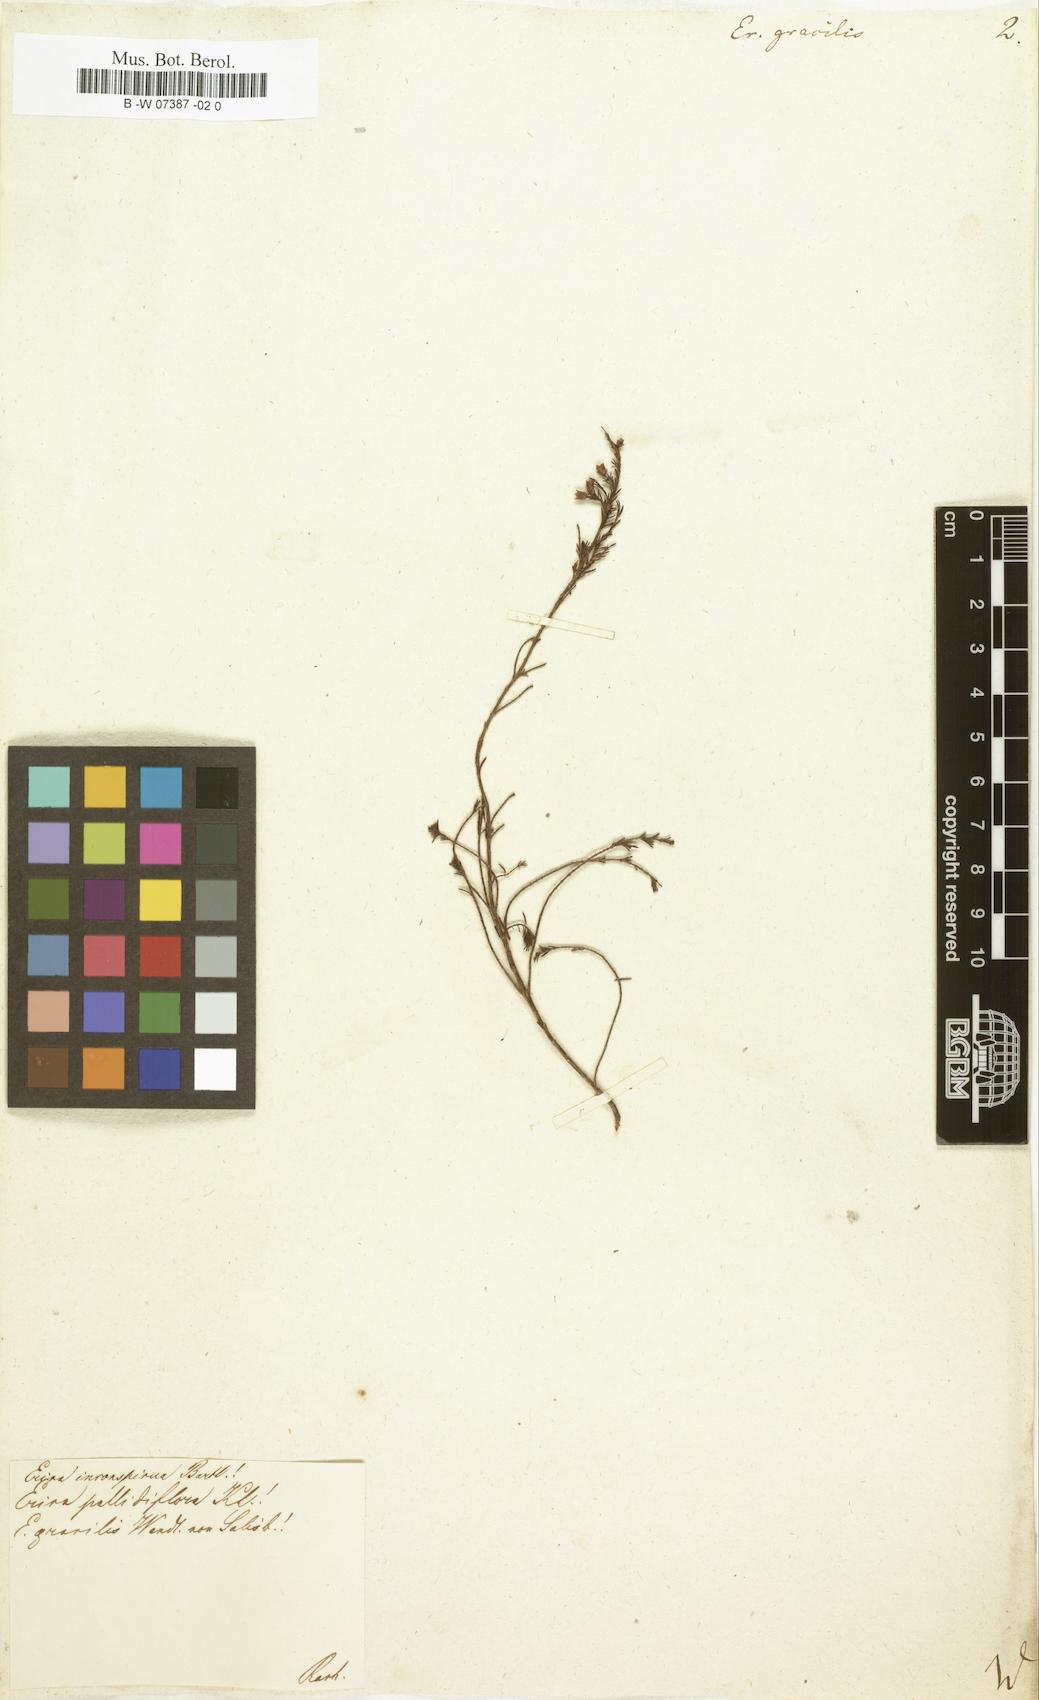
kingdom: Plantae
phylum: Tracheophyta
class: Magnoliopsida
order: Ericales
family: Ericaceae
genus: Erica
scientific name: Erica gracilis
